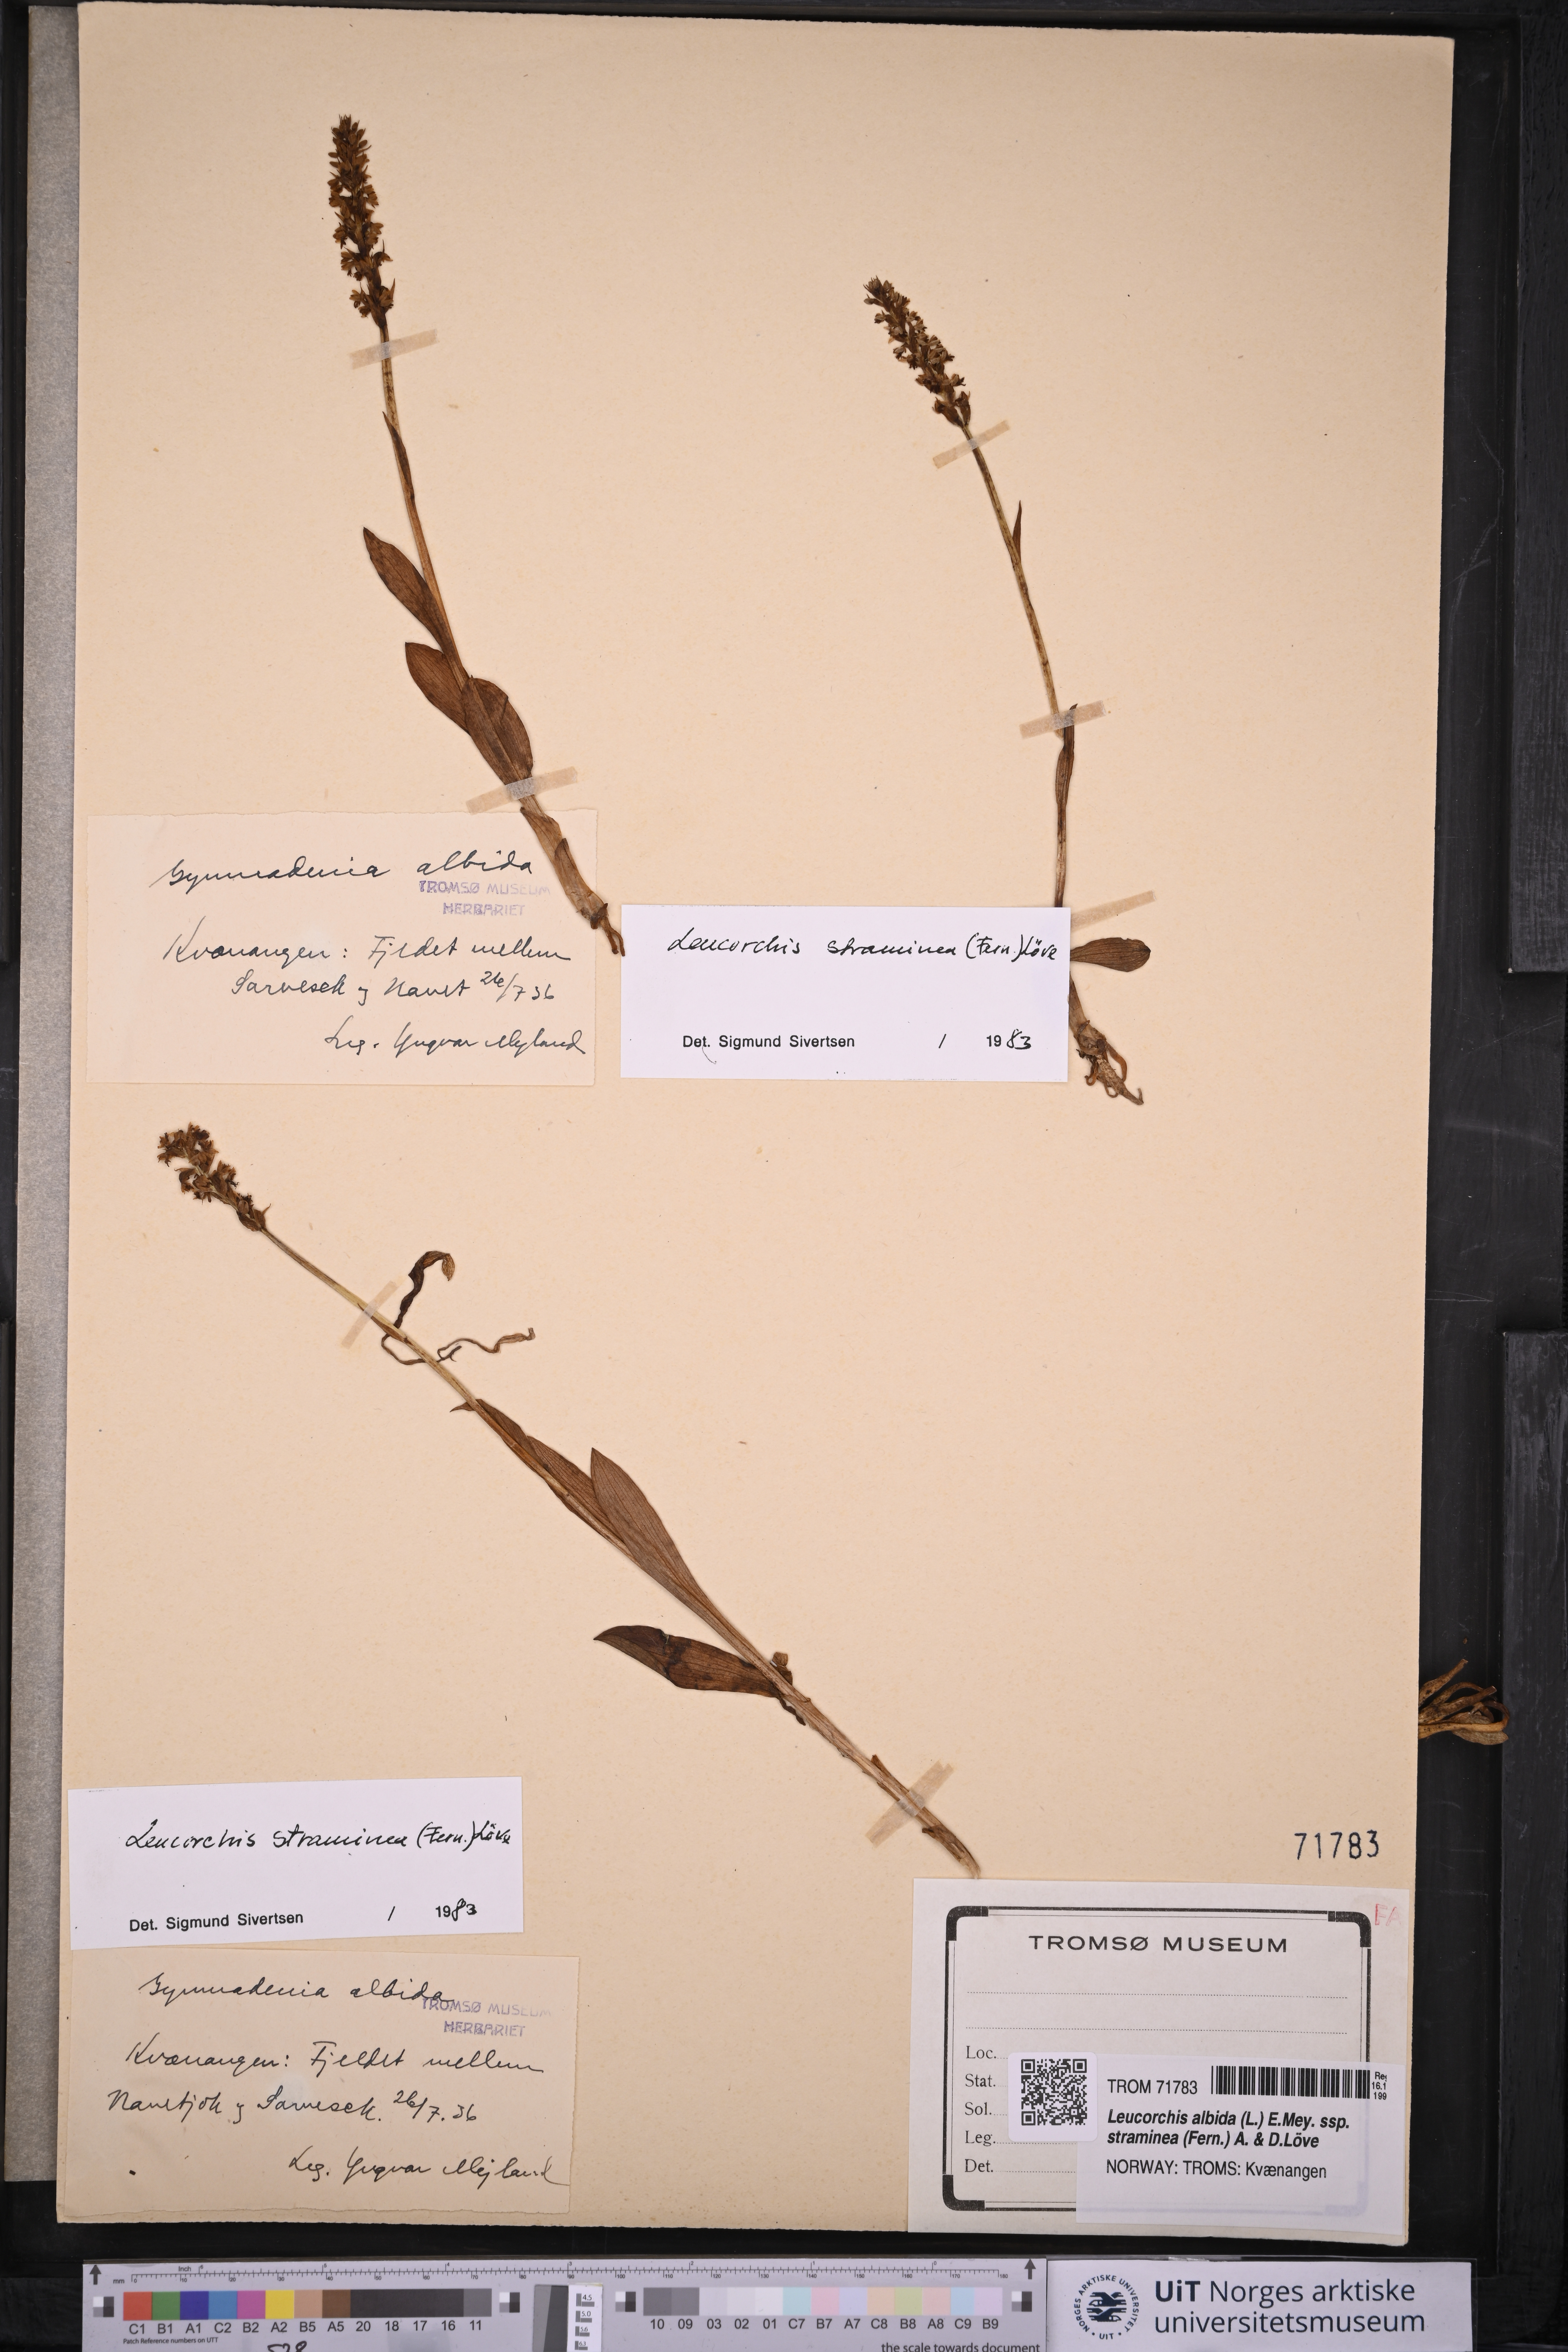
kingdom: Plantae
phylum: Tracheophyta
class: Liliopsida
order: Asparagales
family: Orchidaceae
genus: Pseudorchis
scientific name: Pseudorchis straminea
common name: Vanilla-scented bog orchid
